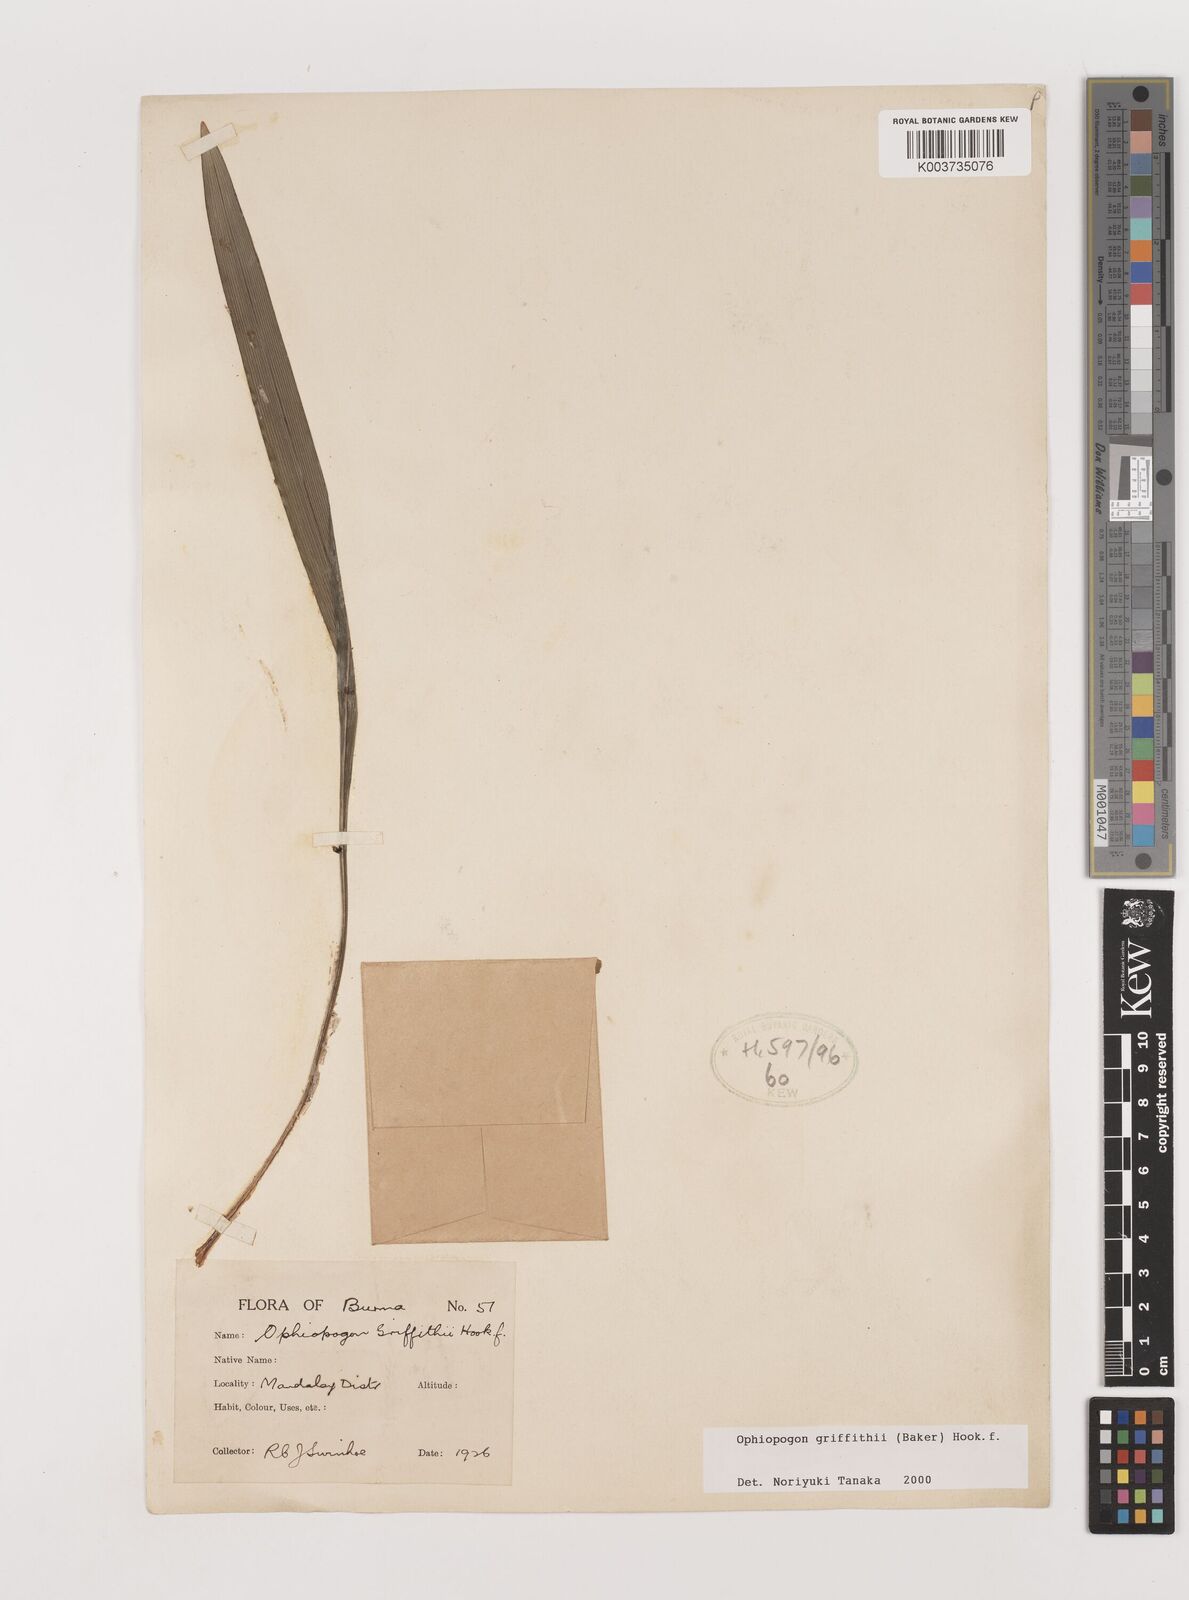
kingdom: Plantae
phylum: Tracheophyta
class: Liliopsida
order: Asparagales
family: Asparagaceae
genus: Ophiopogon
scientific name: Ophiopogon griffithii
